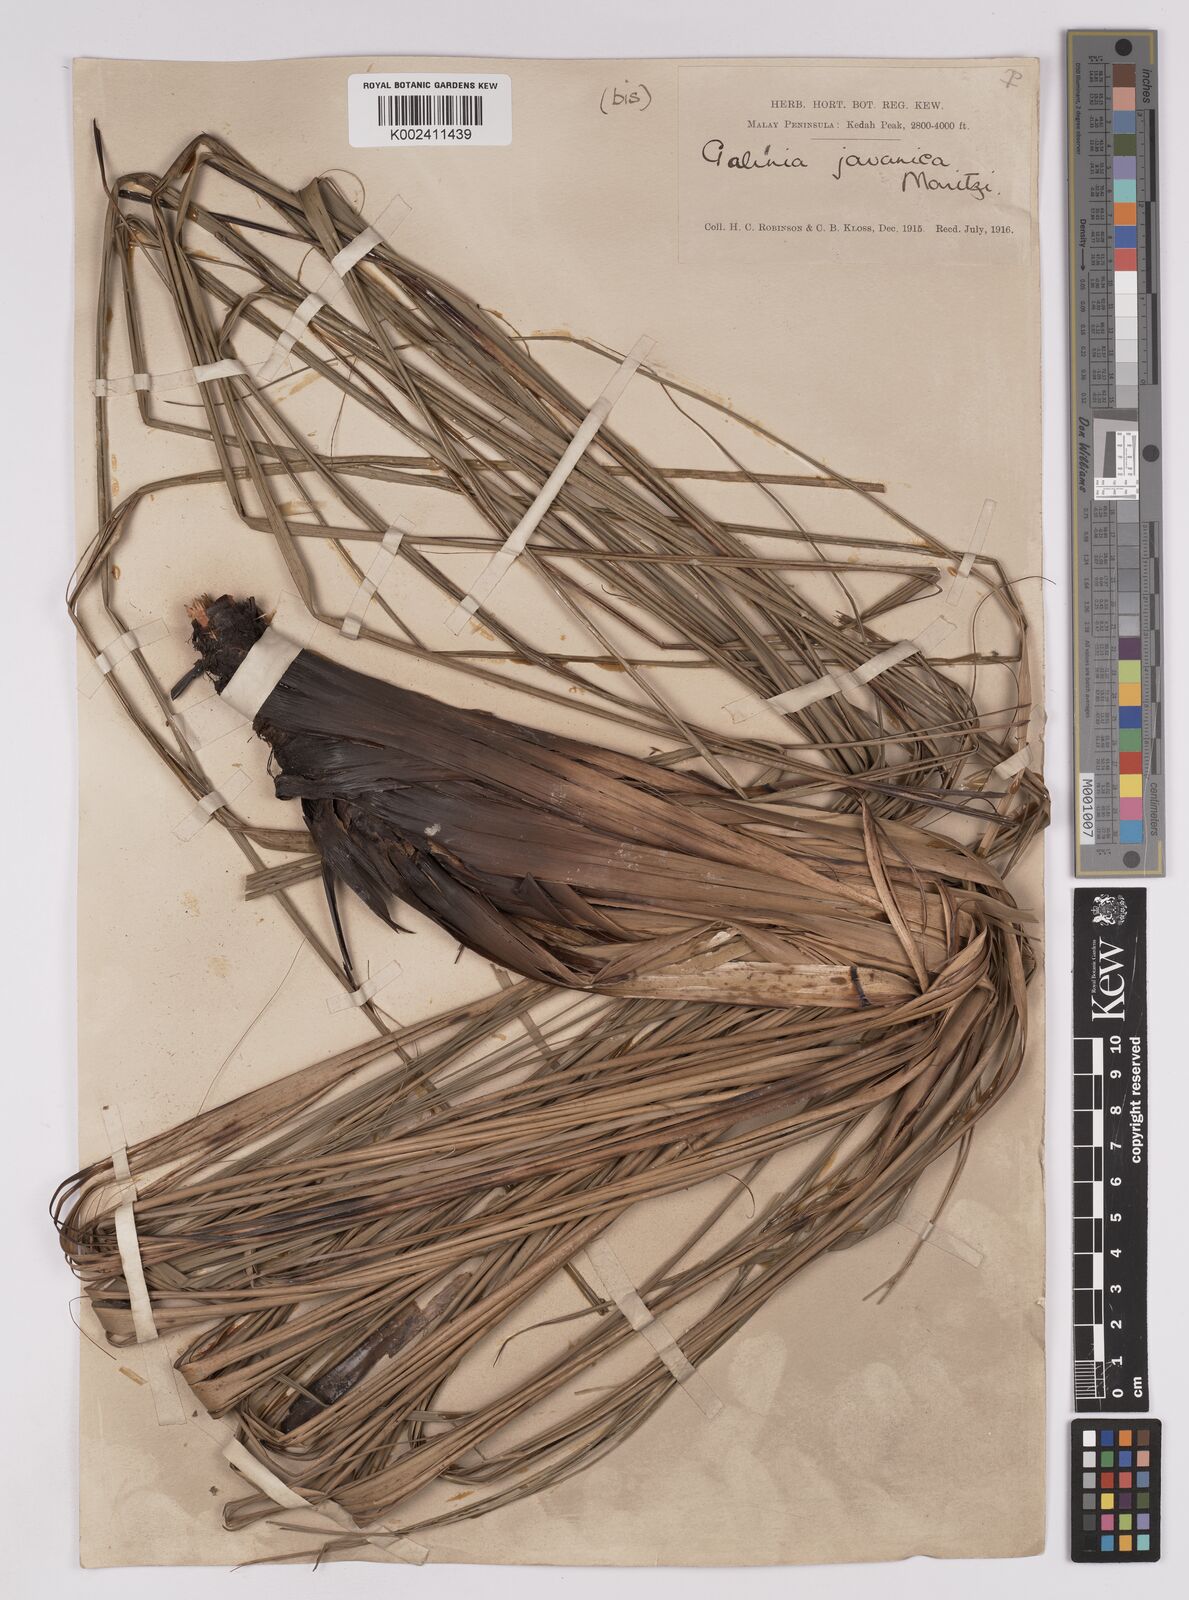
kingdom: Plantae
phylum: Tracheophyta
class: Liliopsida
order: Poales
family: Cyperaceae
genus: Gahnia
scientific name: Gahnia baniensis
